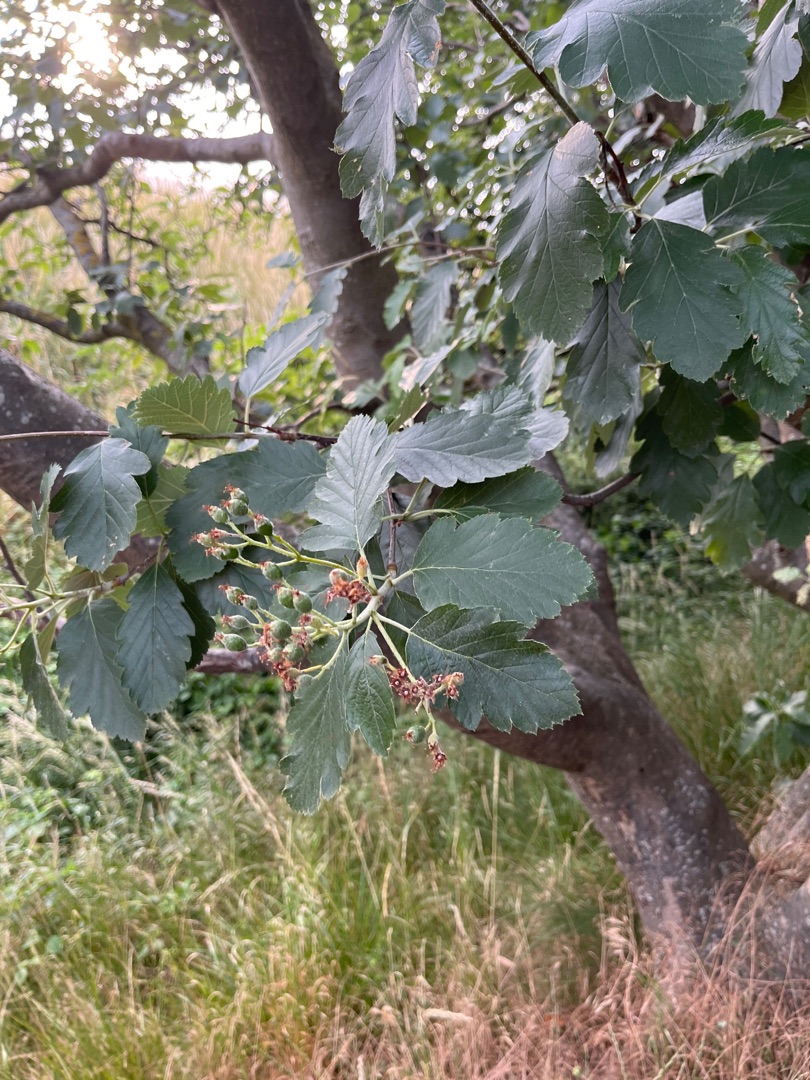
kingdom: Plantae
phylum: Tracheophyta
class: Magnoliopsida
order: Rosales
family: Rosaceae
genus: Scandosorbus
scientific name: Scandosorbus intermedia
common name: Selje-røn
